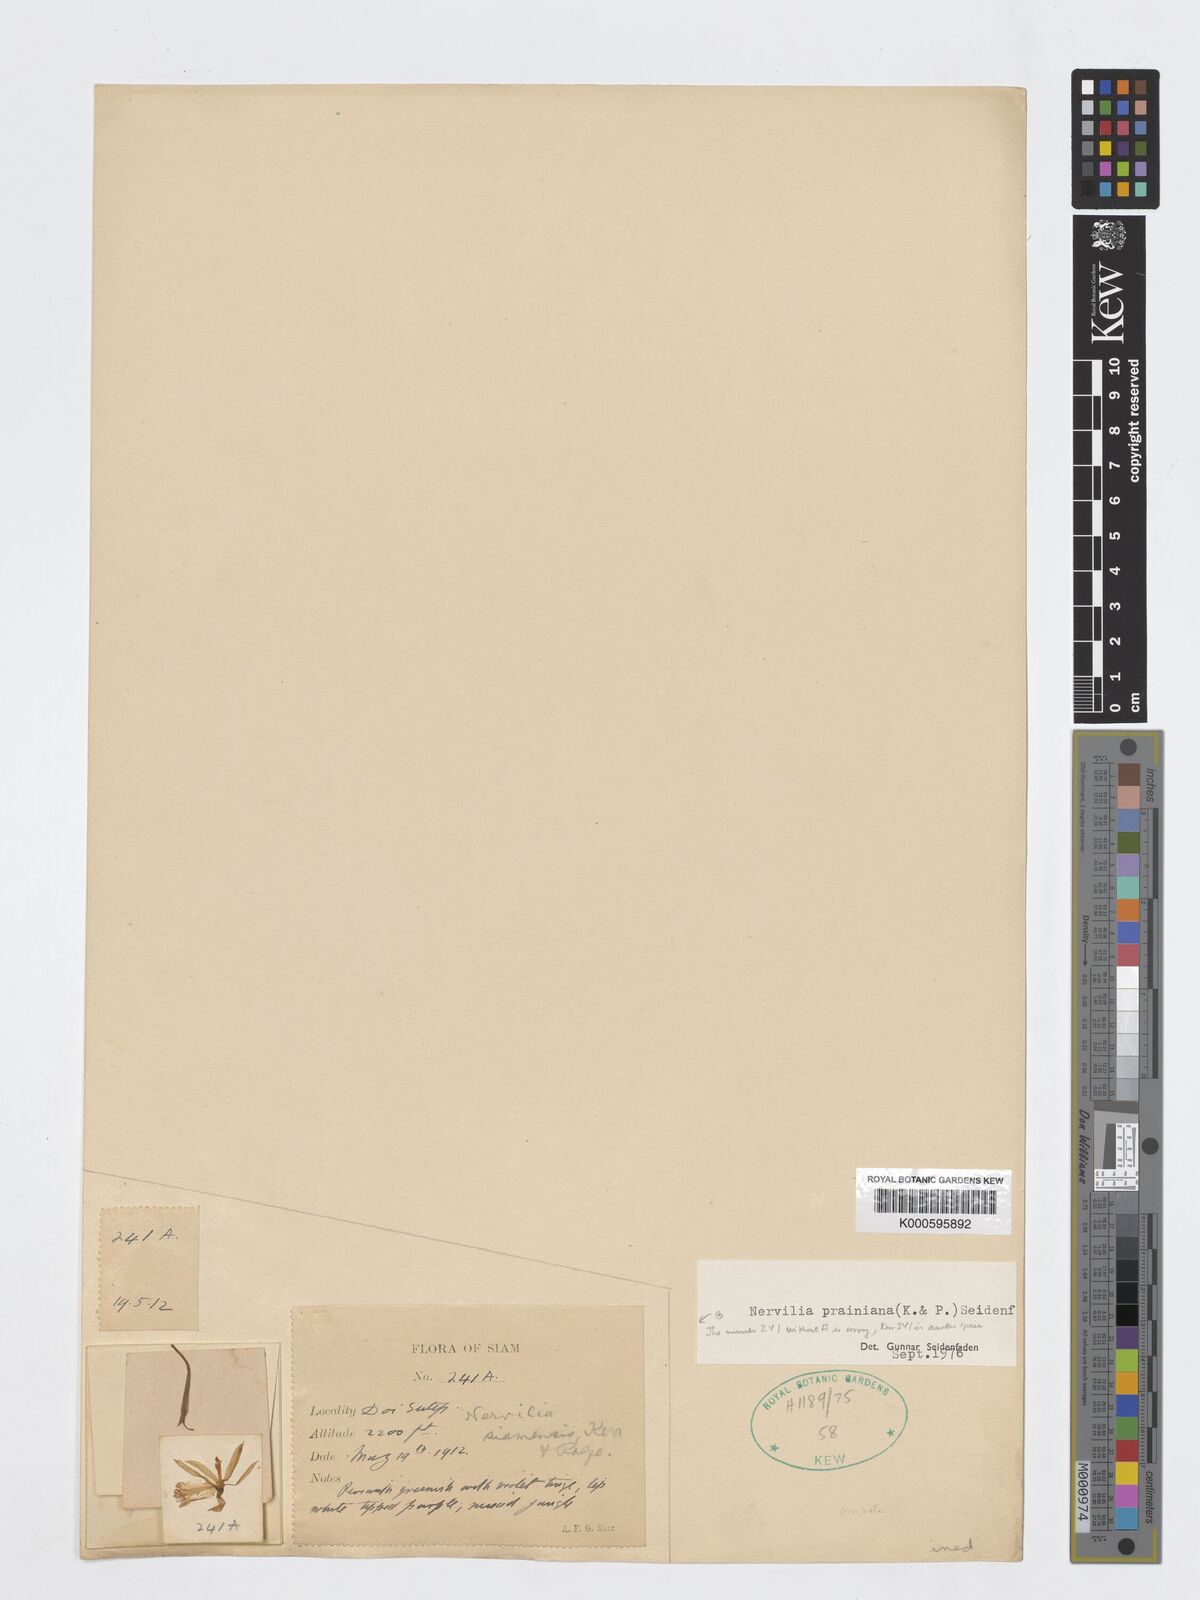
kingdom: Plantae
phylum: Tracheophyta
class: Liliopsida
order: Asparagales
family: Orchidaceae
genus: Nervilia
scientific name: Nervilia simplex
